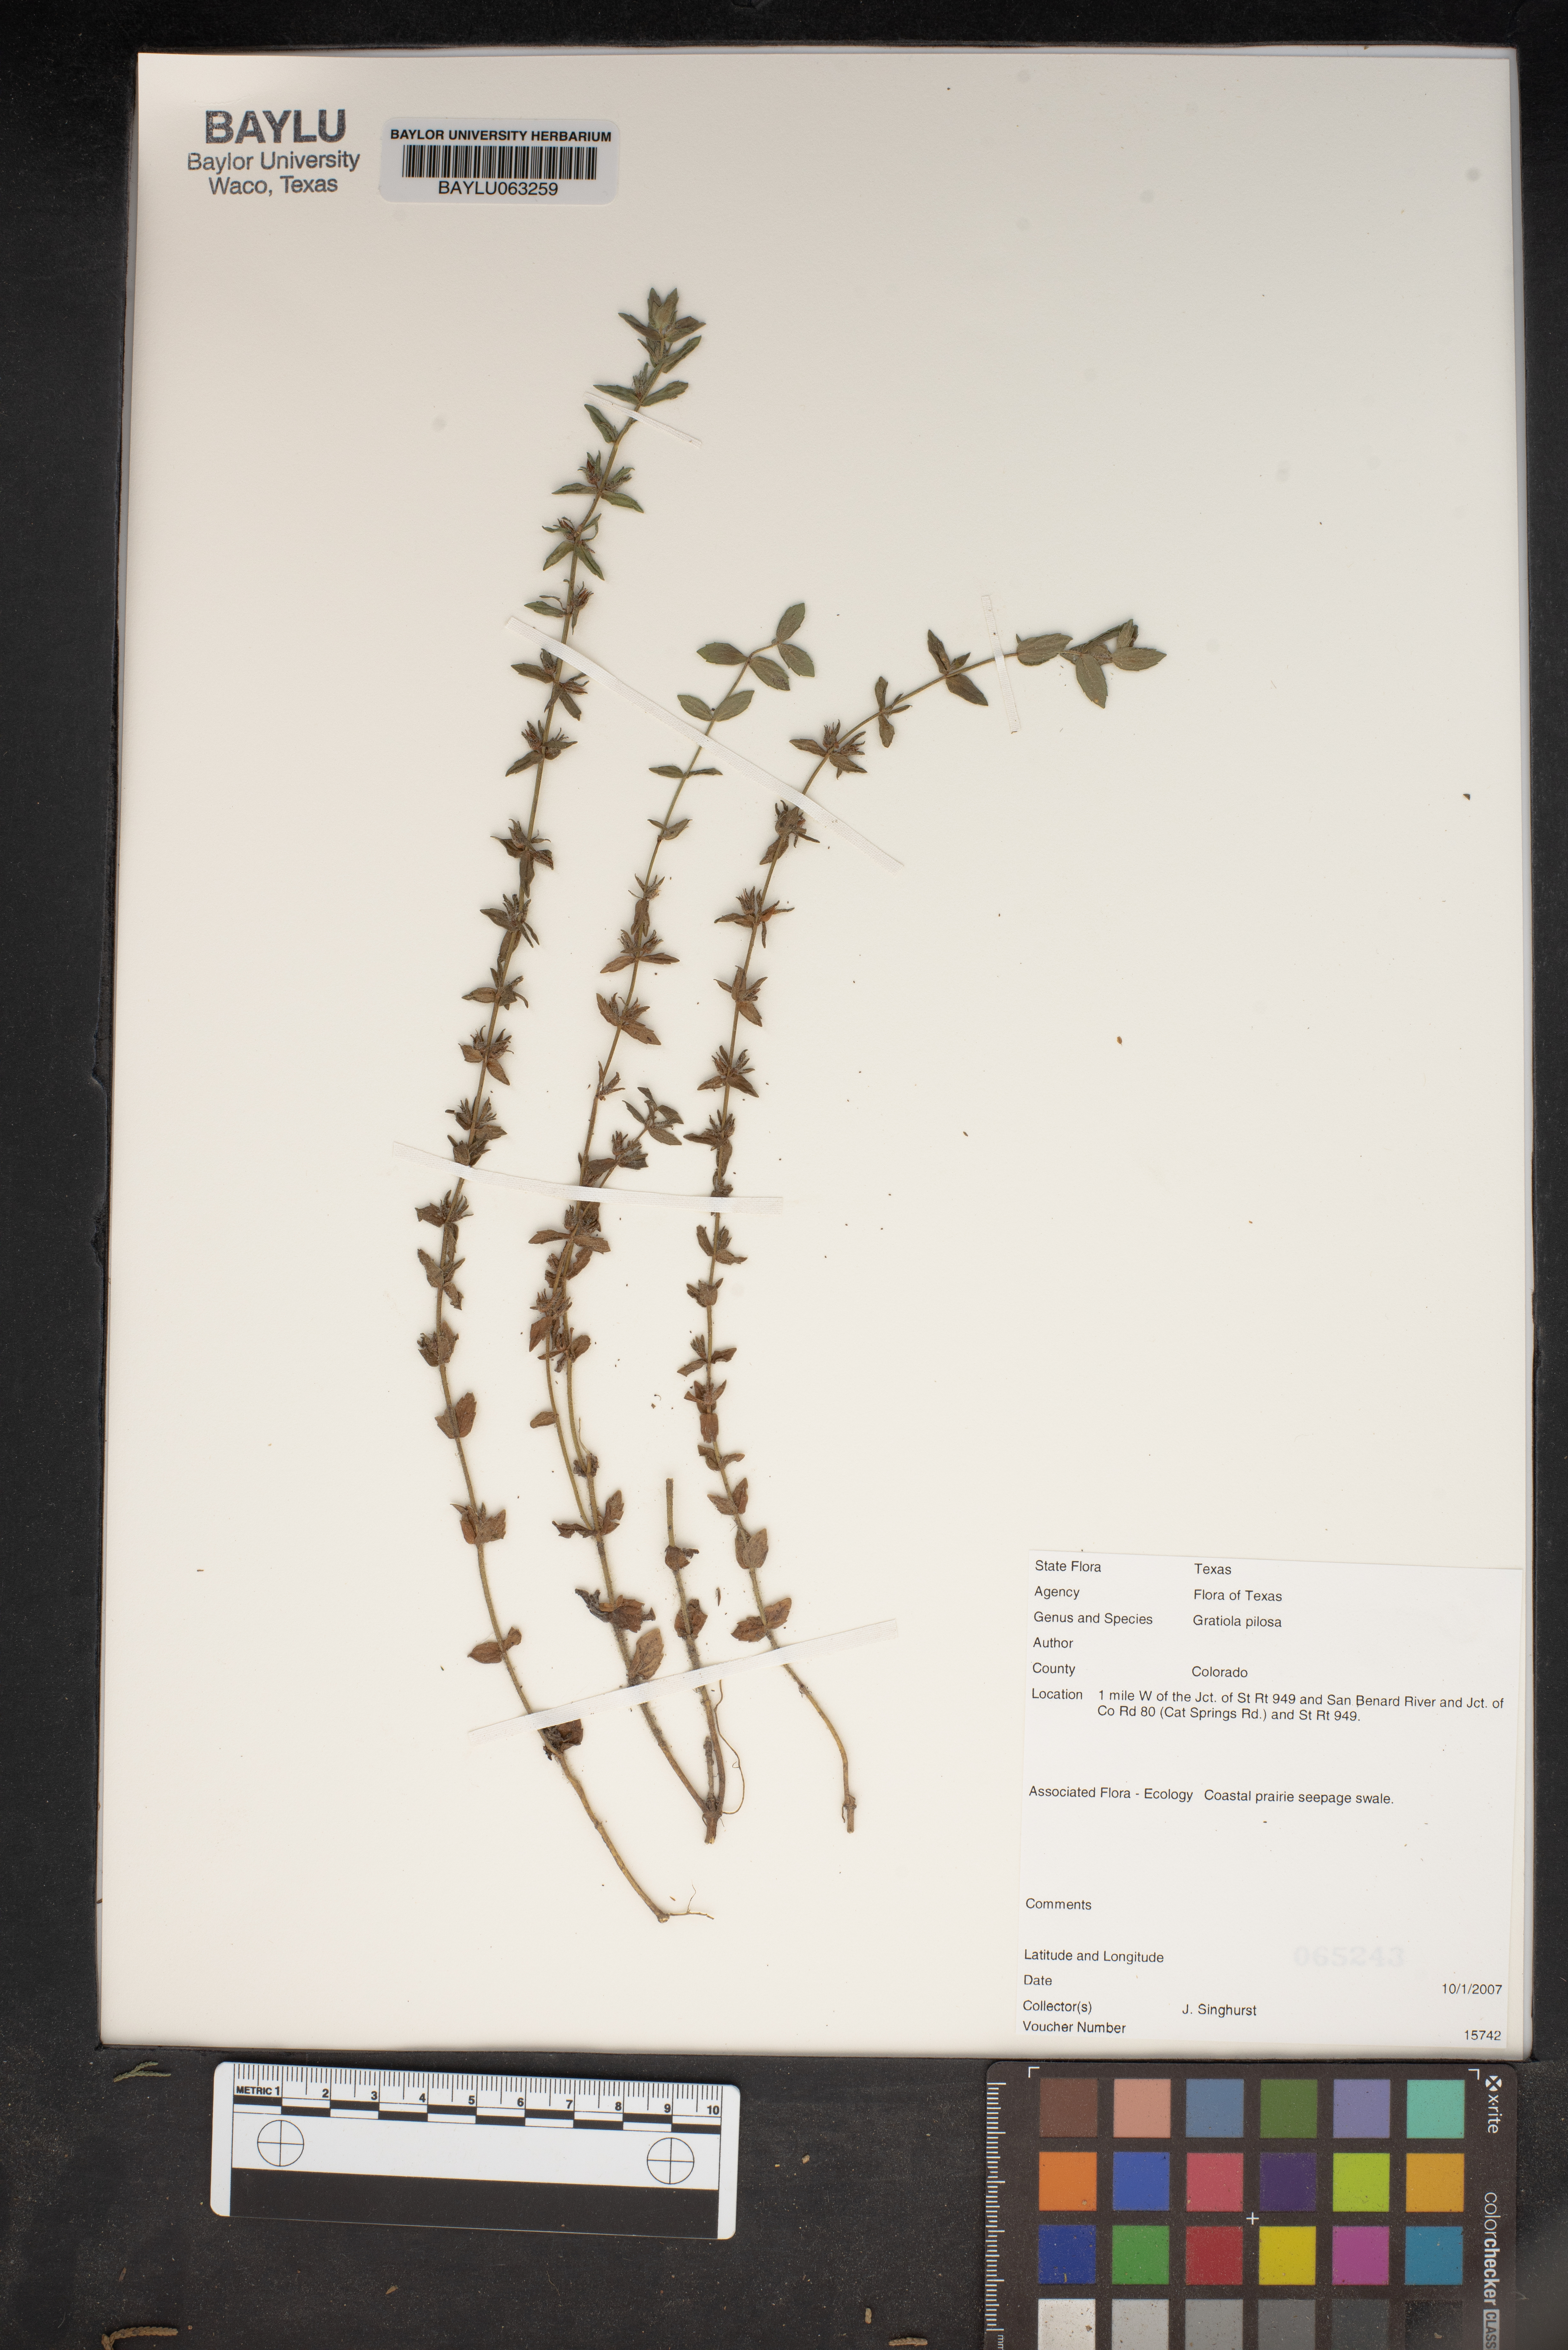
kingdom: Plantae
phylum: Tracheophyta
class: Magnoliopsida
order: Lamiales
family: Plantaginaceae
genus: Gratiola
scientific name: Gratiola pilosa
